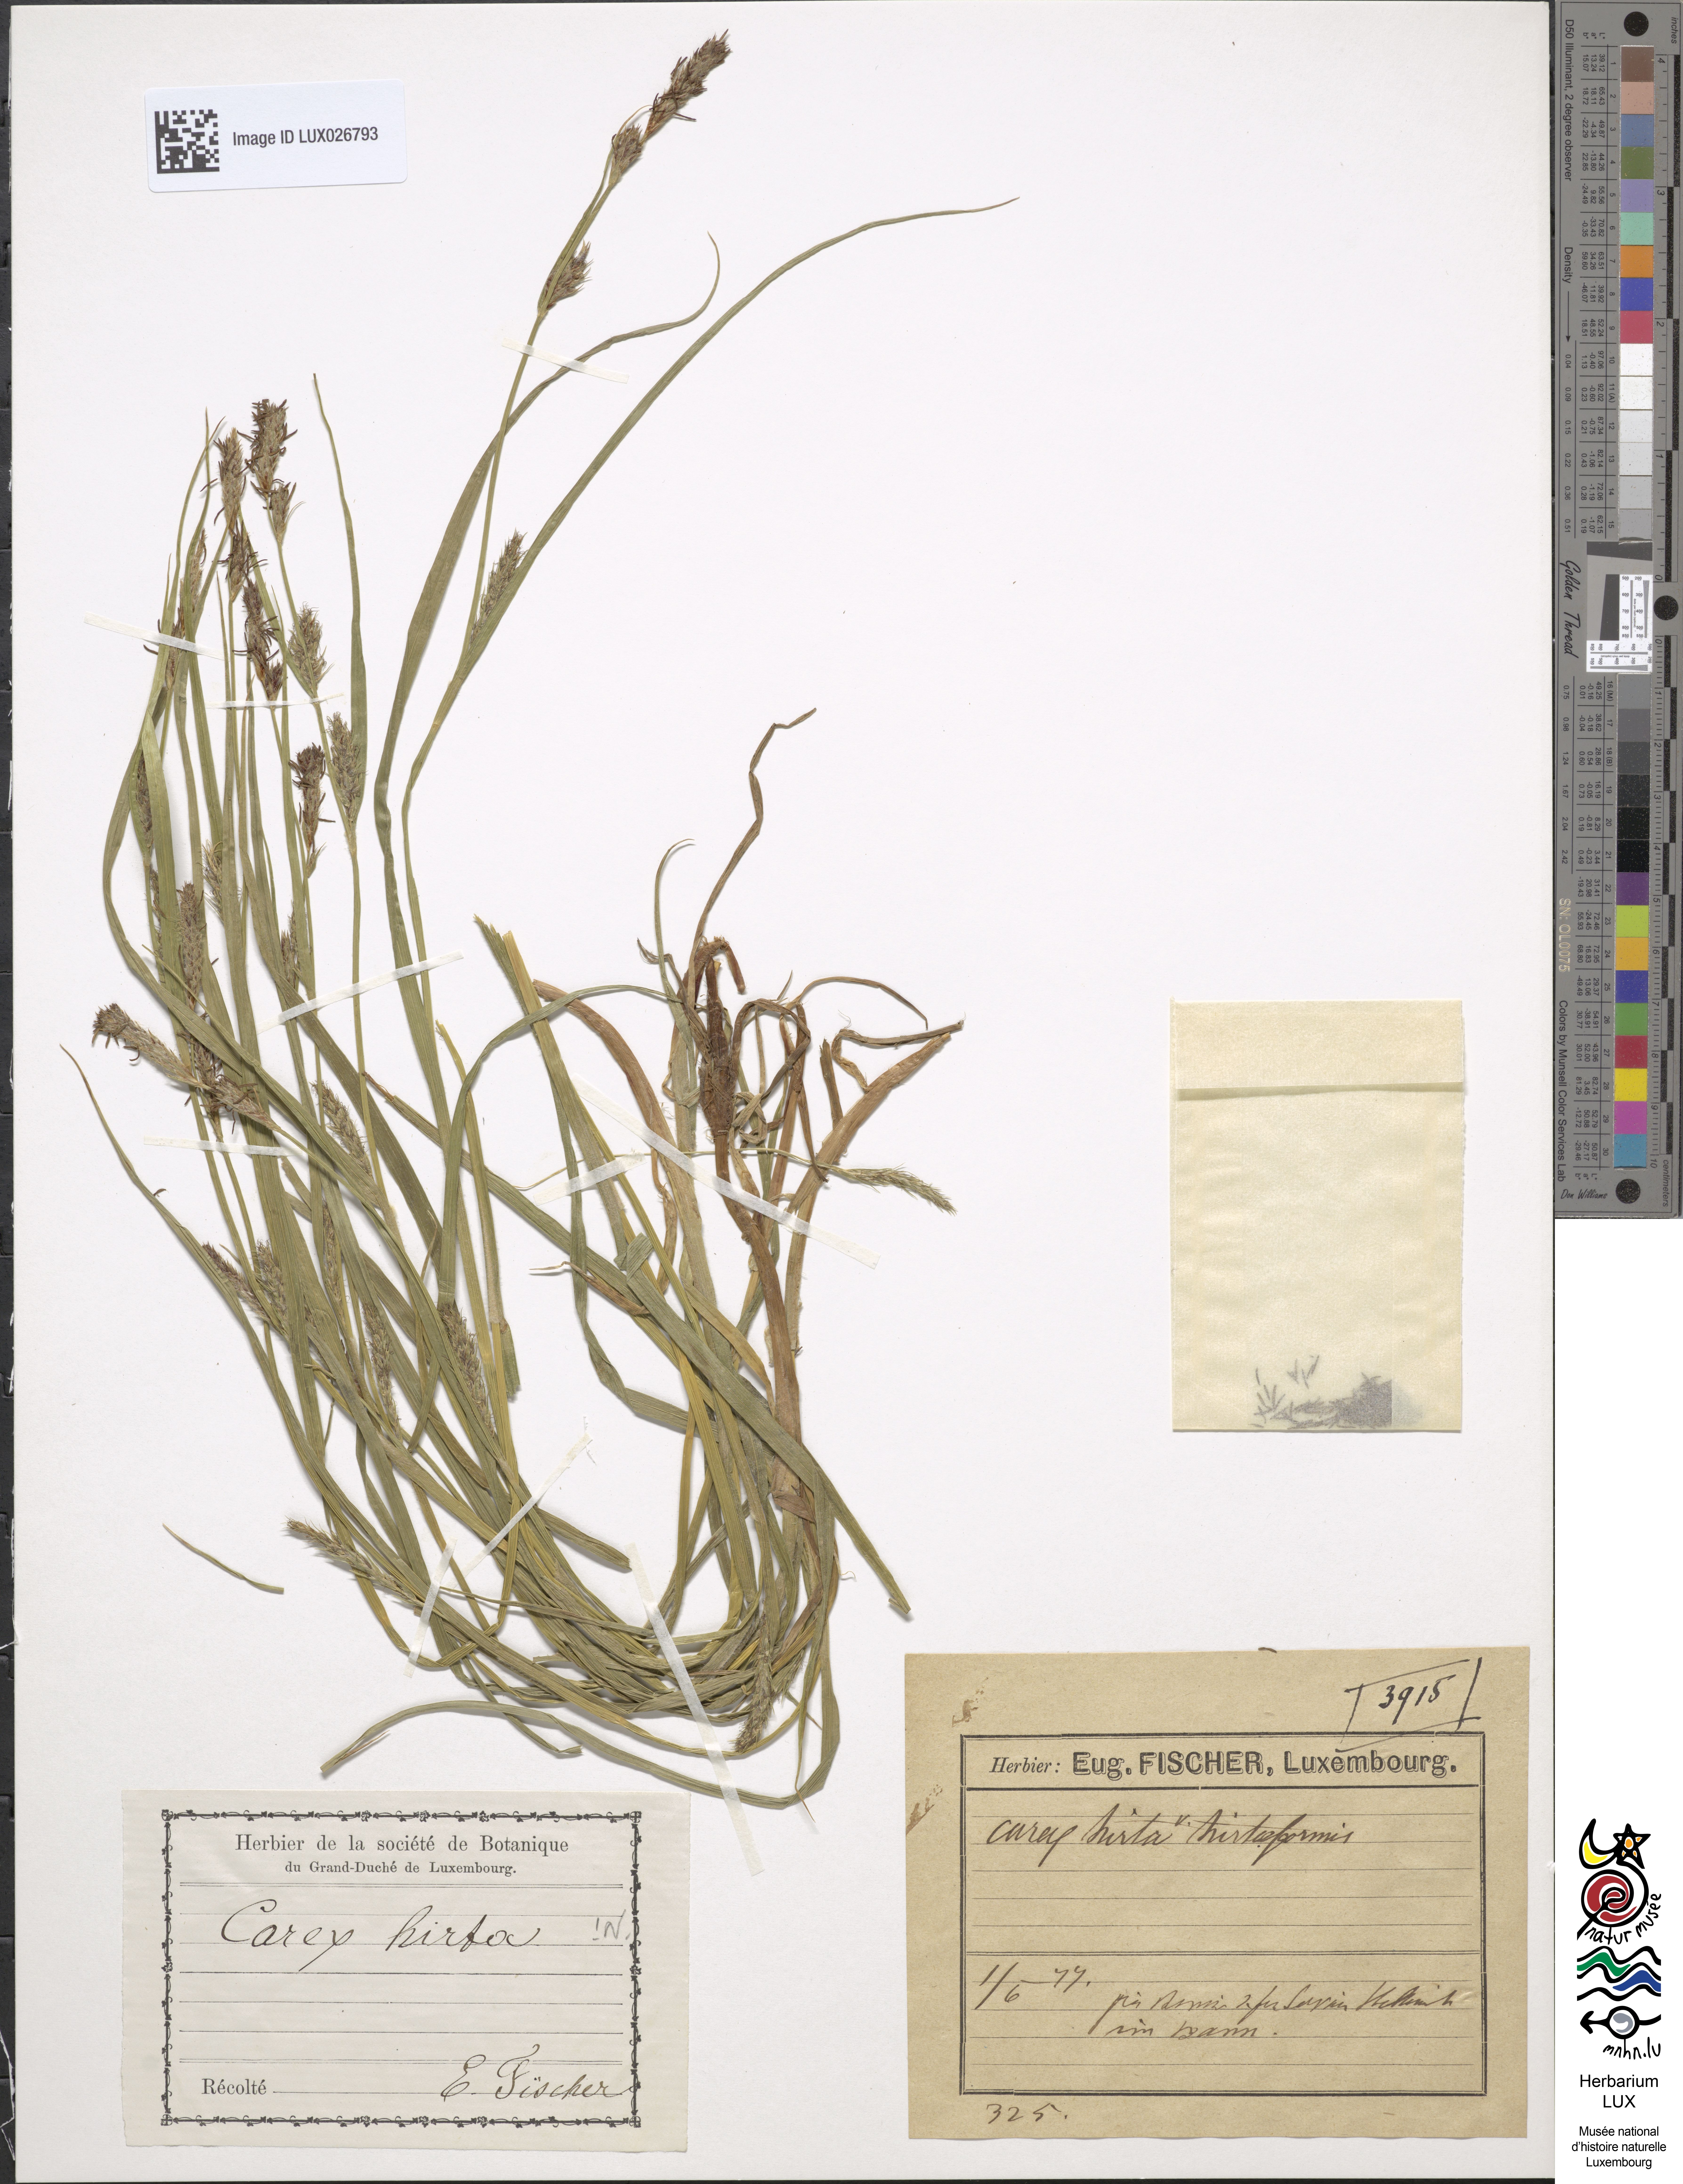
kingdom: Plantae
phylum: Tracheophyta
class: Liliopsida
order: Poales
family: Cyperaceae
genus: Carex
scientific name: Carex hirta
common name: Hairy sedge
